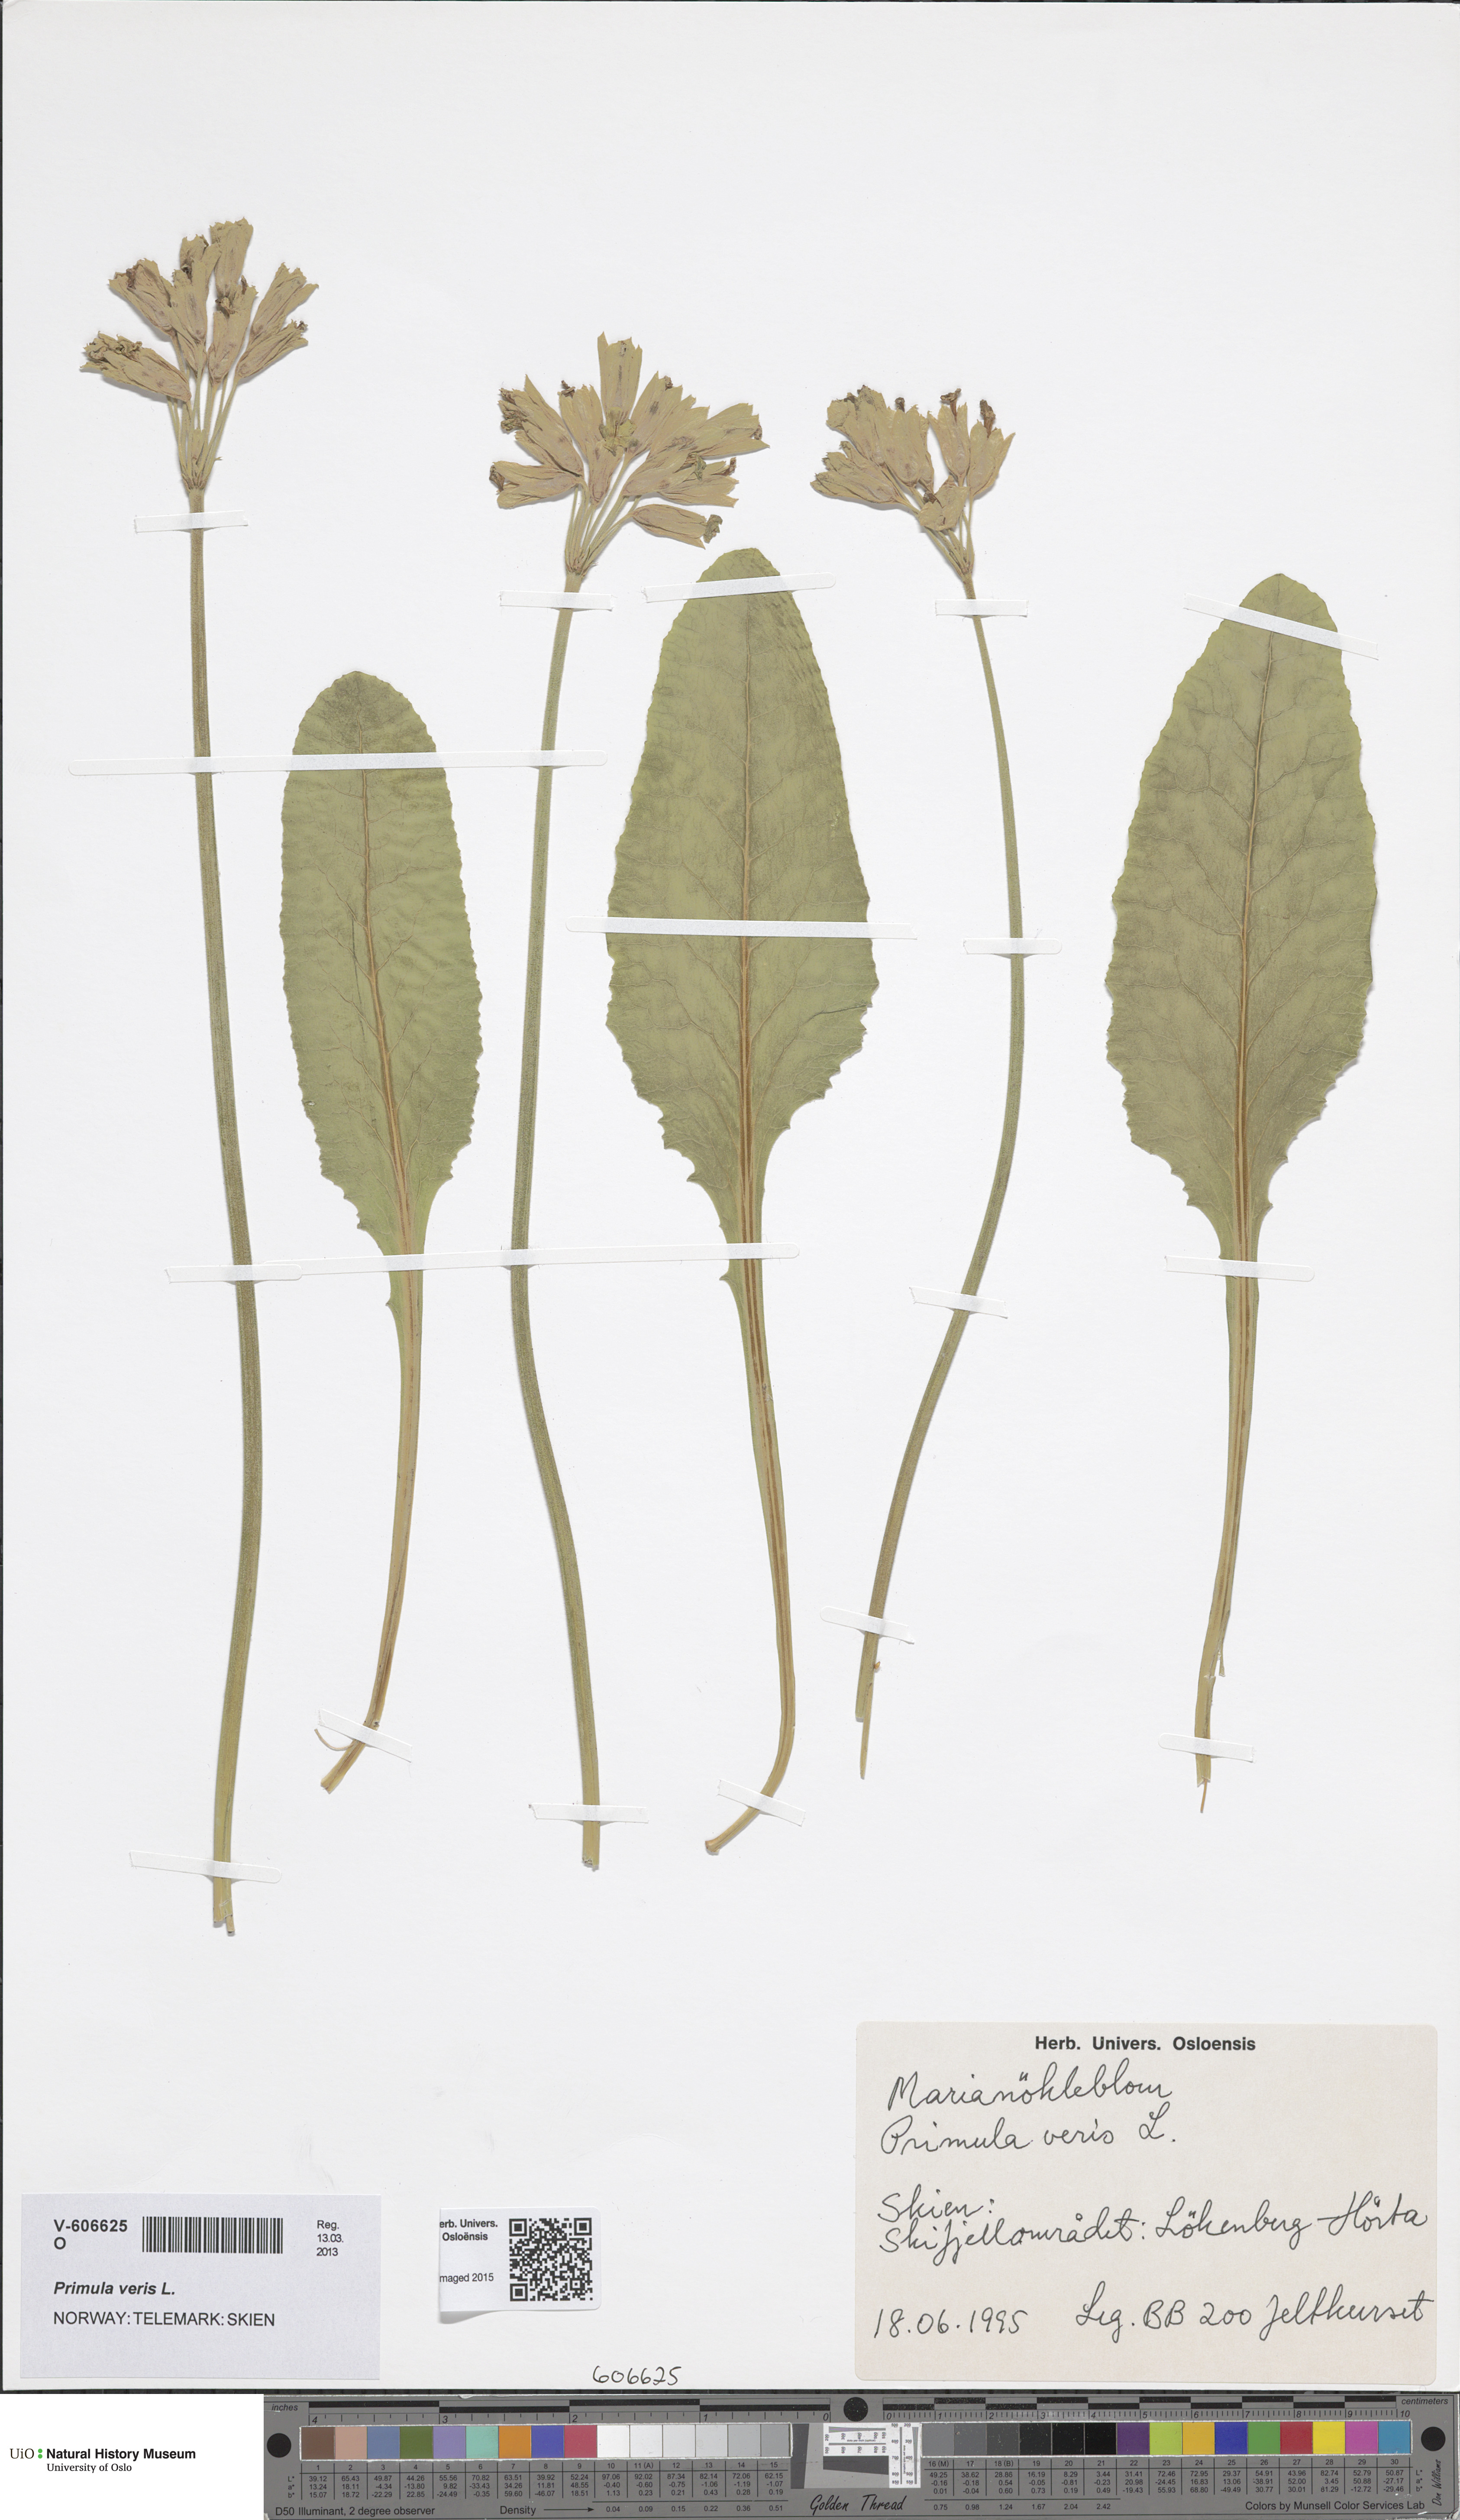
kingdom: Plantae
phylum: Tracheophyta
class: Magnoliopsida
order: Ericales
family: Primulaceae
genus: Primula
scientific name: Primula veris
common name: Cowslip
